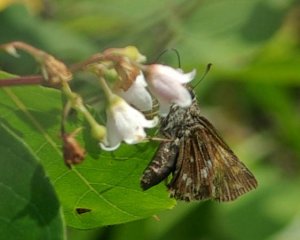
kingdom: Animalia
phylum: Arthropoda
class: Insecta
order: Lepidoptera
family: Hesperiidae
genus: Atalopedes
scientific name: Atalopedes campestris
